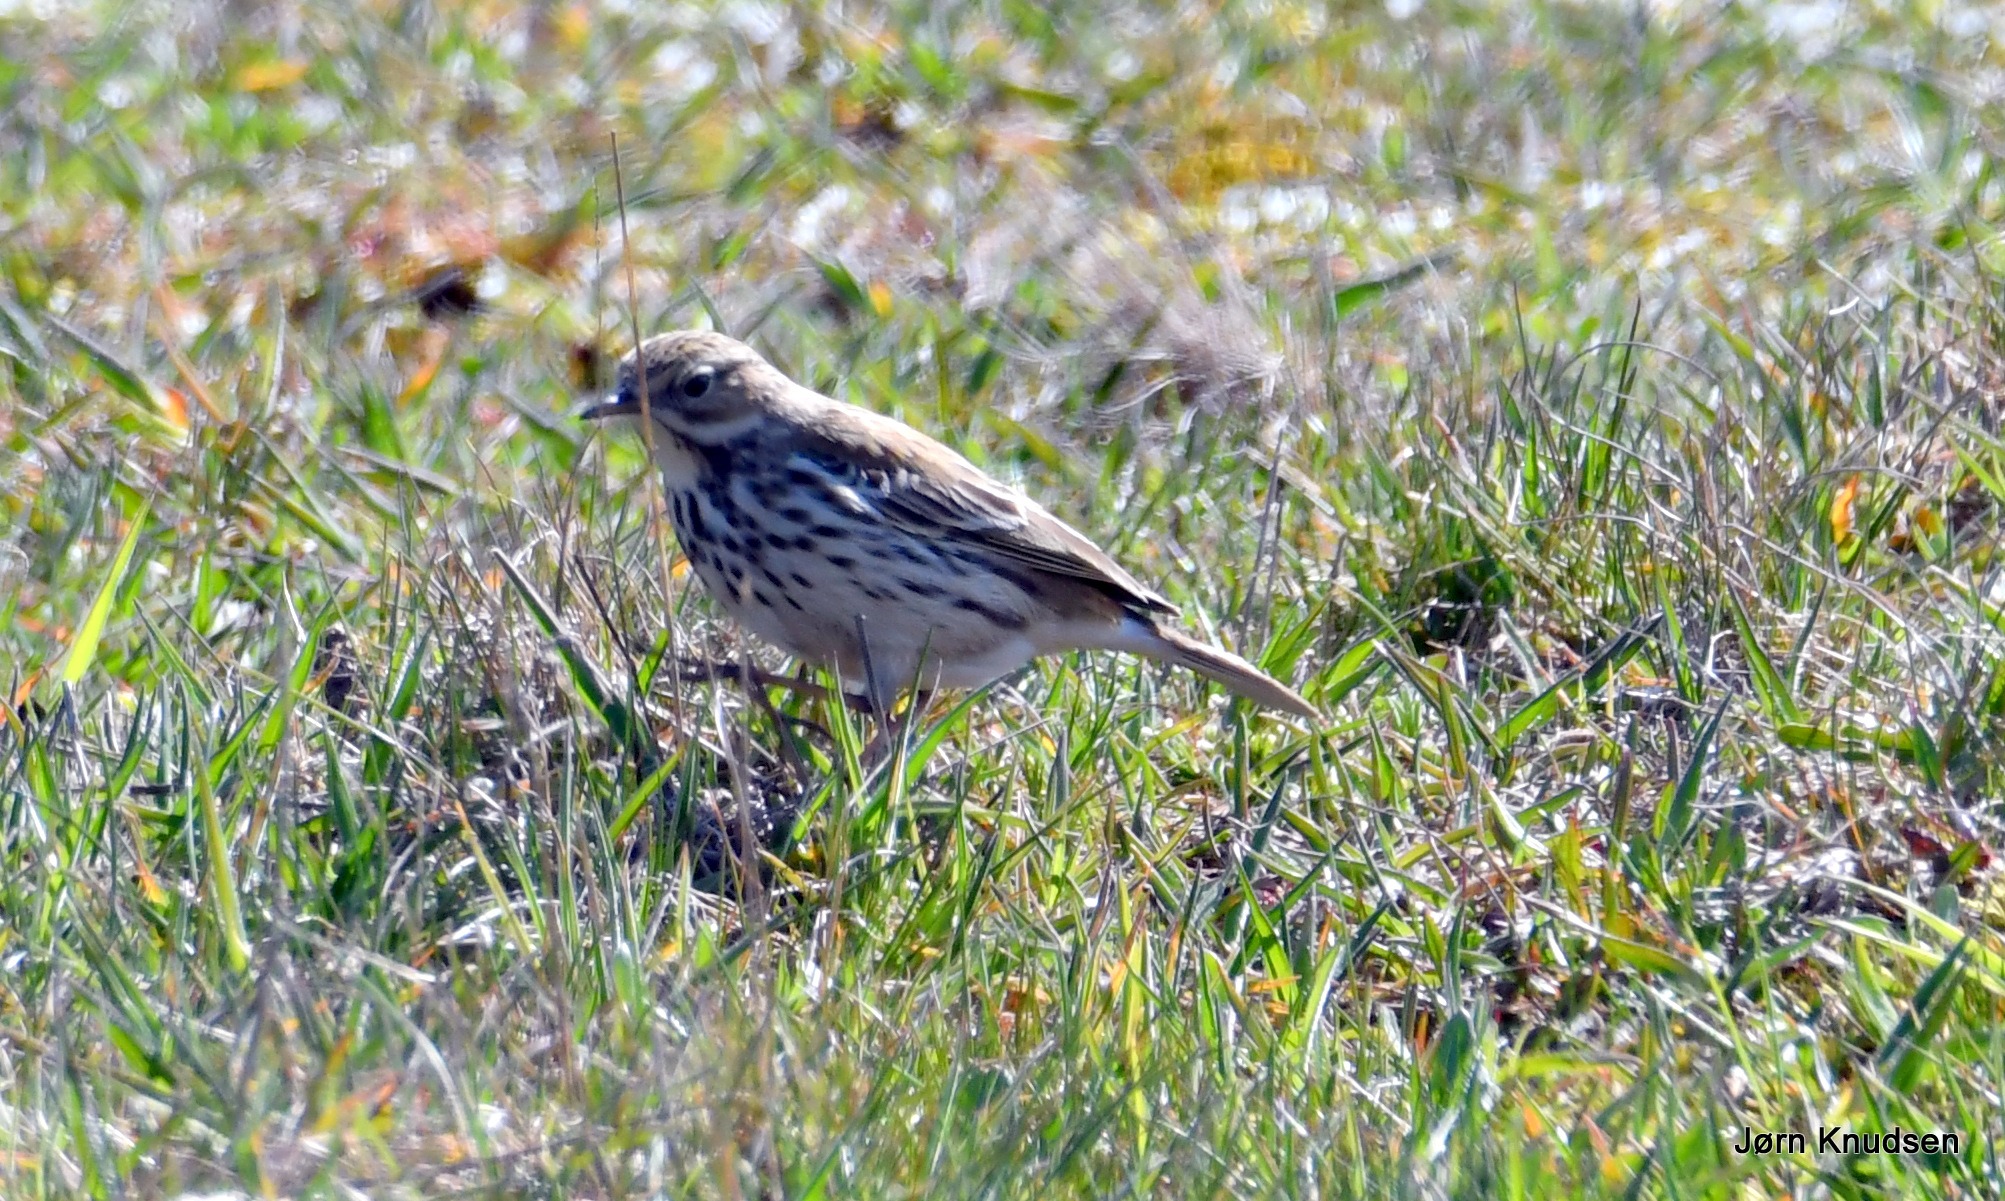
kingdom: Animalia
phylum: Chordata
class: Aves
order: Passeriformes
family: Motacillidae
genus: Anthus
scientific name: Anthus pratensis
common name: Engpiber
